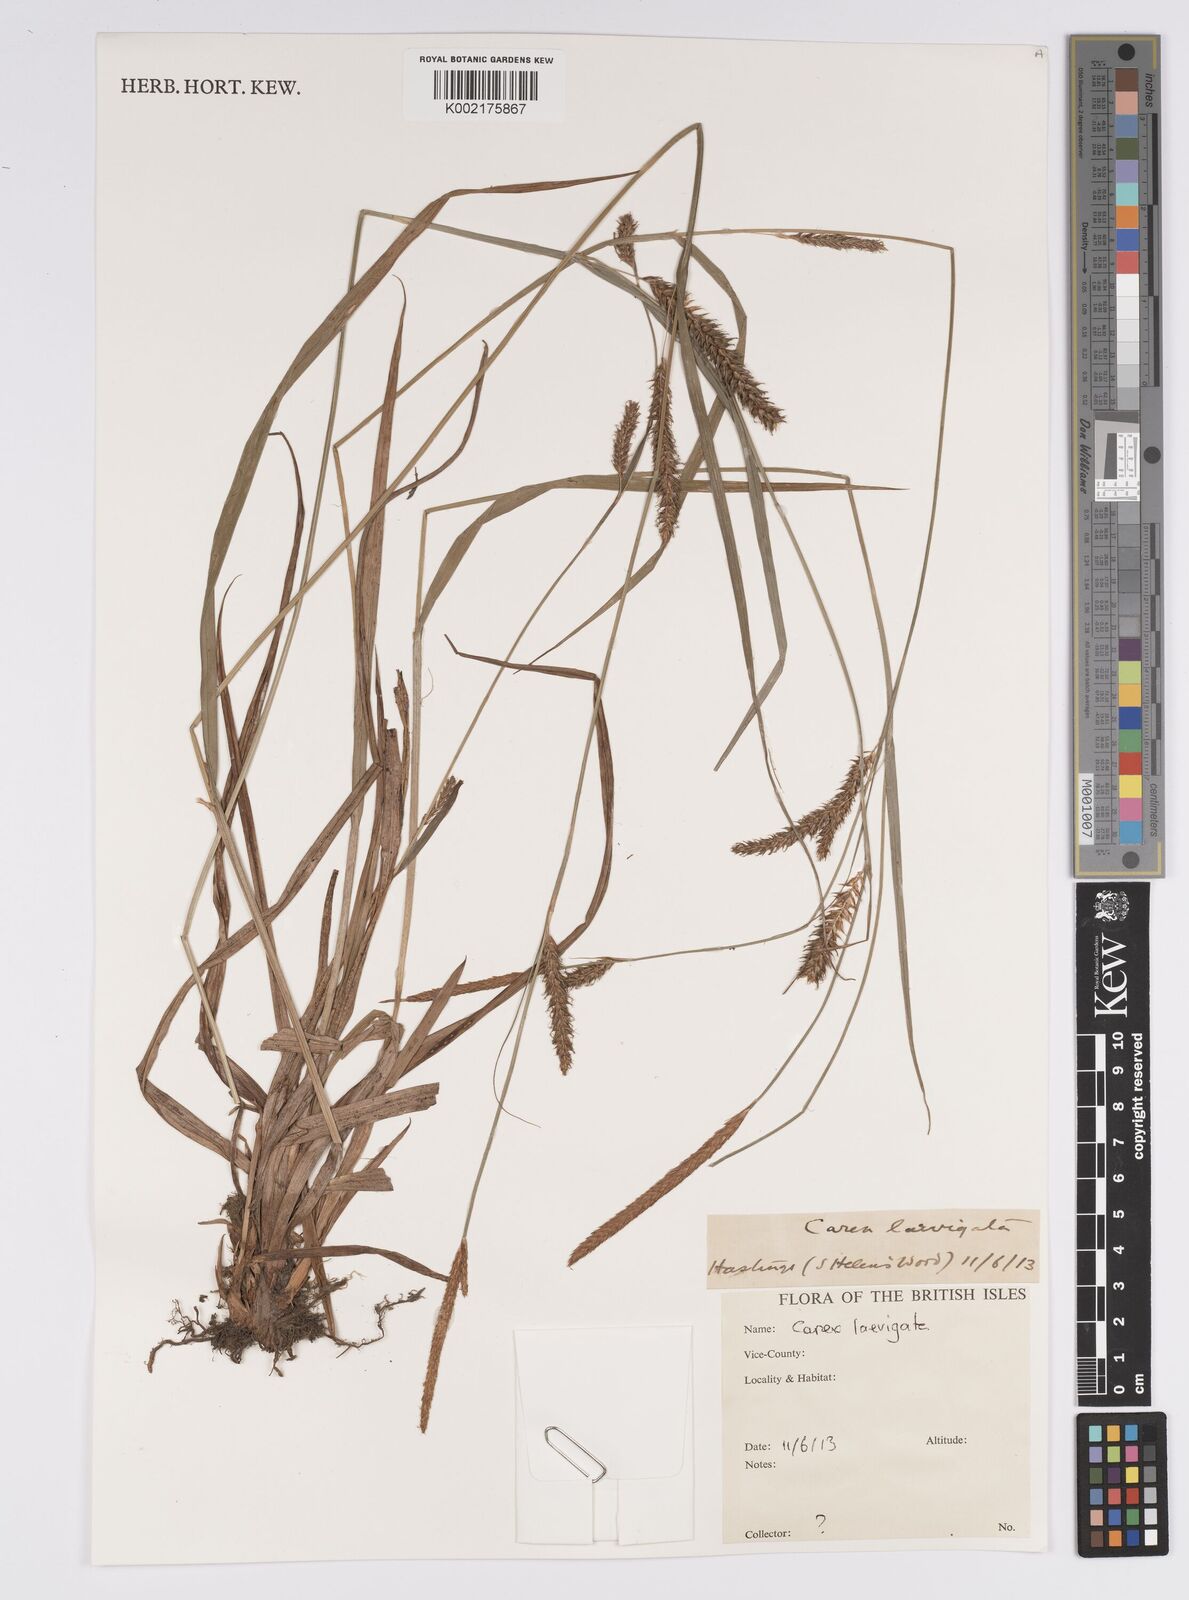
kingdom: Plantae
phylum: Tracheophyta
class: Liliopsida
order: Poales
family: Cyperaceae
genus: Carex
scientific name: Carex laevigata
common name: Smooth-stalked sedge
